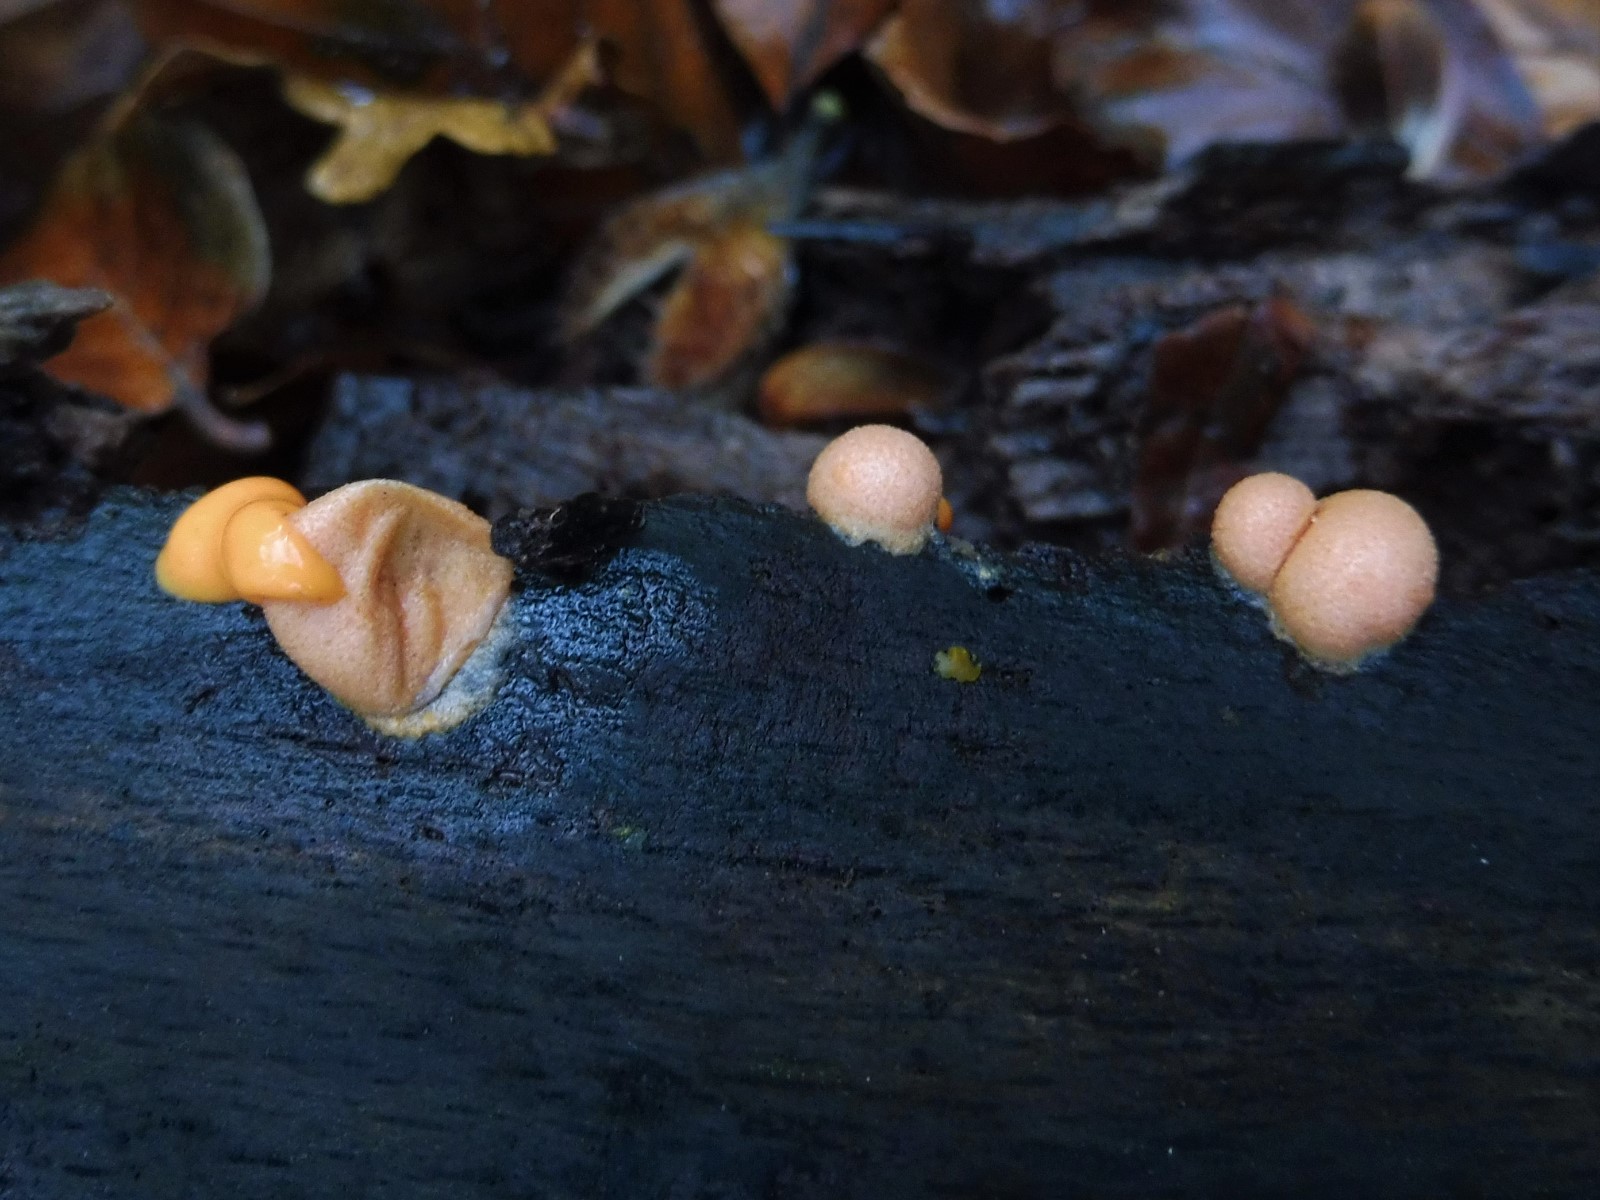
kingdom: Protozoa
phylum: Mycetozoa
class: Myxomycetes
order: Cribrariales
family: Tubiferaceae
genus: Lycogala
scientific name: Lycogala epidendrum
